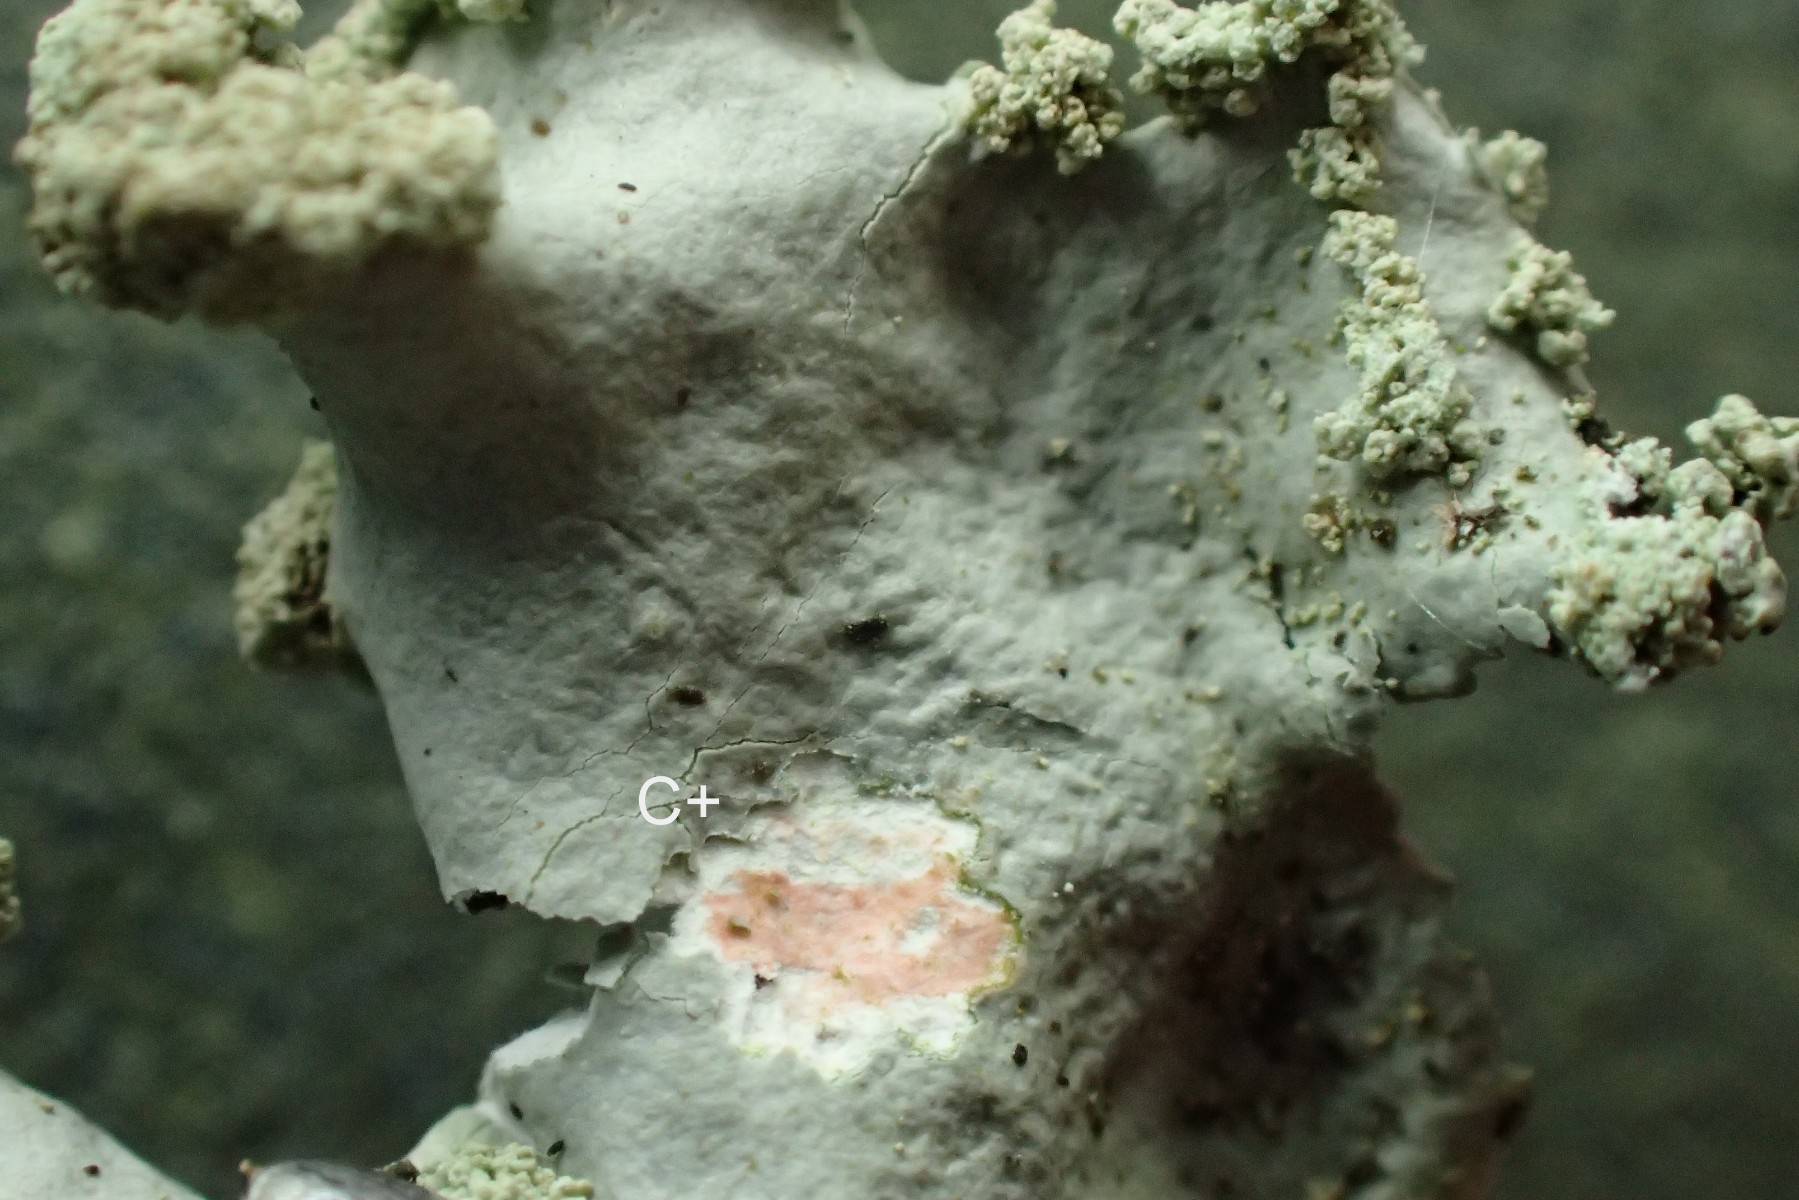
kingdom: Fungi
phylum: Ascomycota
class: Lecanoromycetes
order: Lecanorales
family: Parmeliaceae
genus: Hypotrachyna
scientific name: Hypotrachyna afrorevoluta
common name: kyst-skållav
